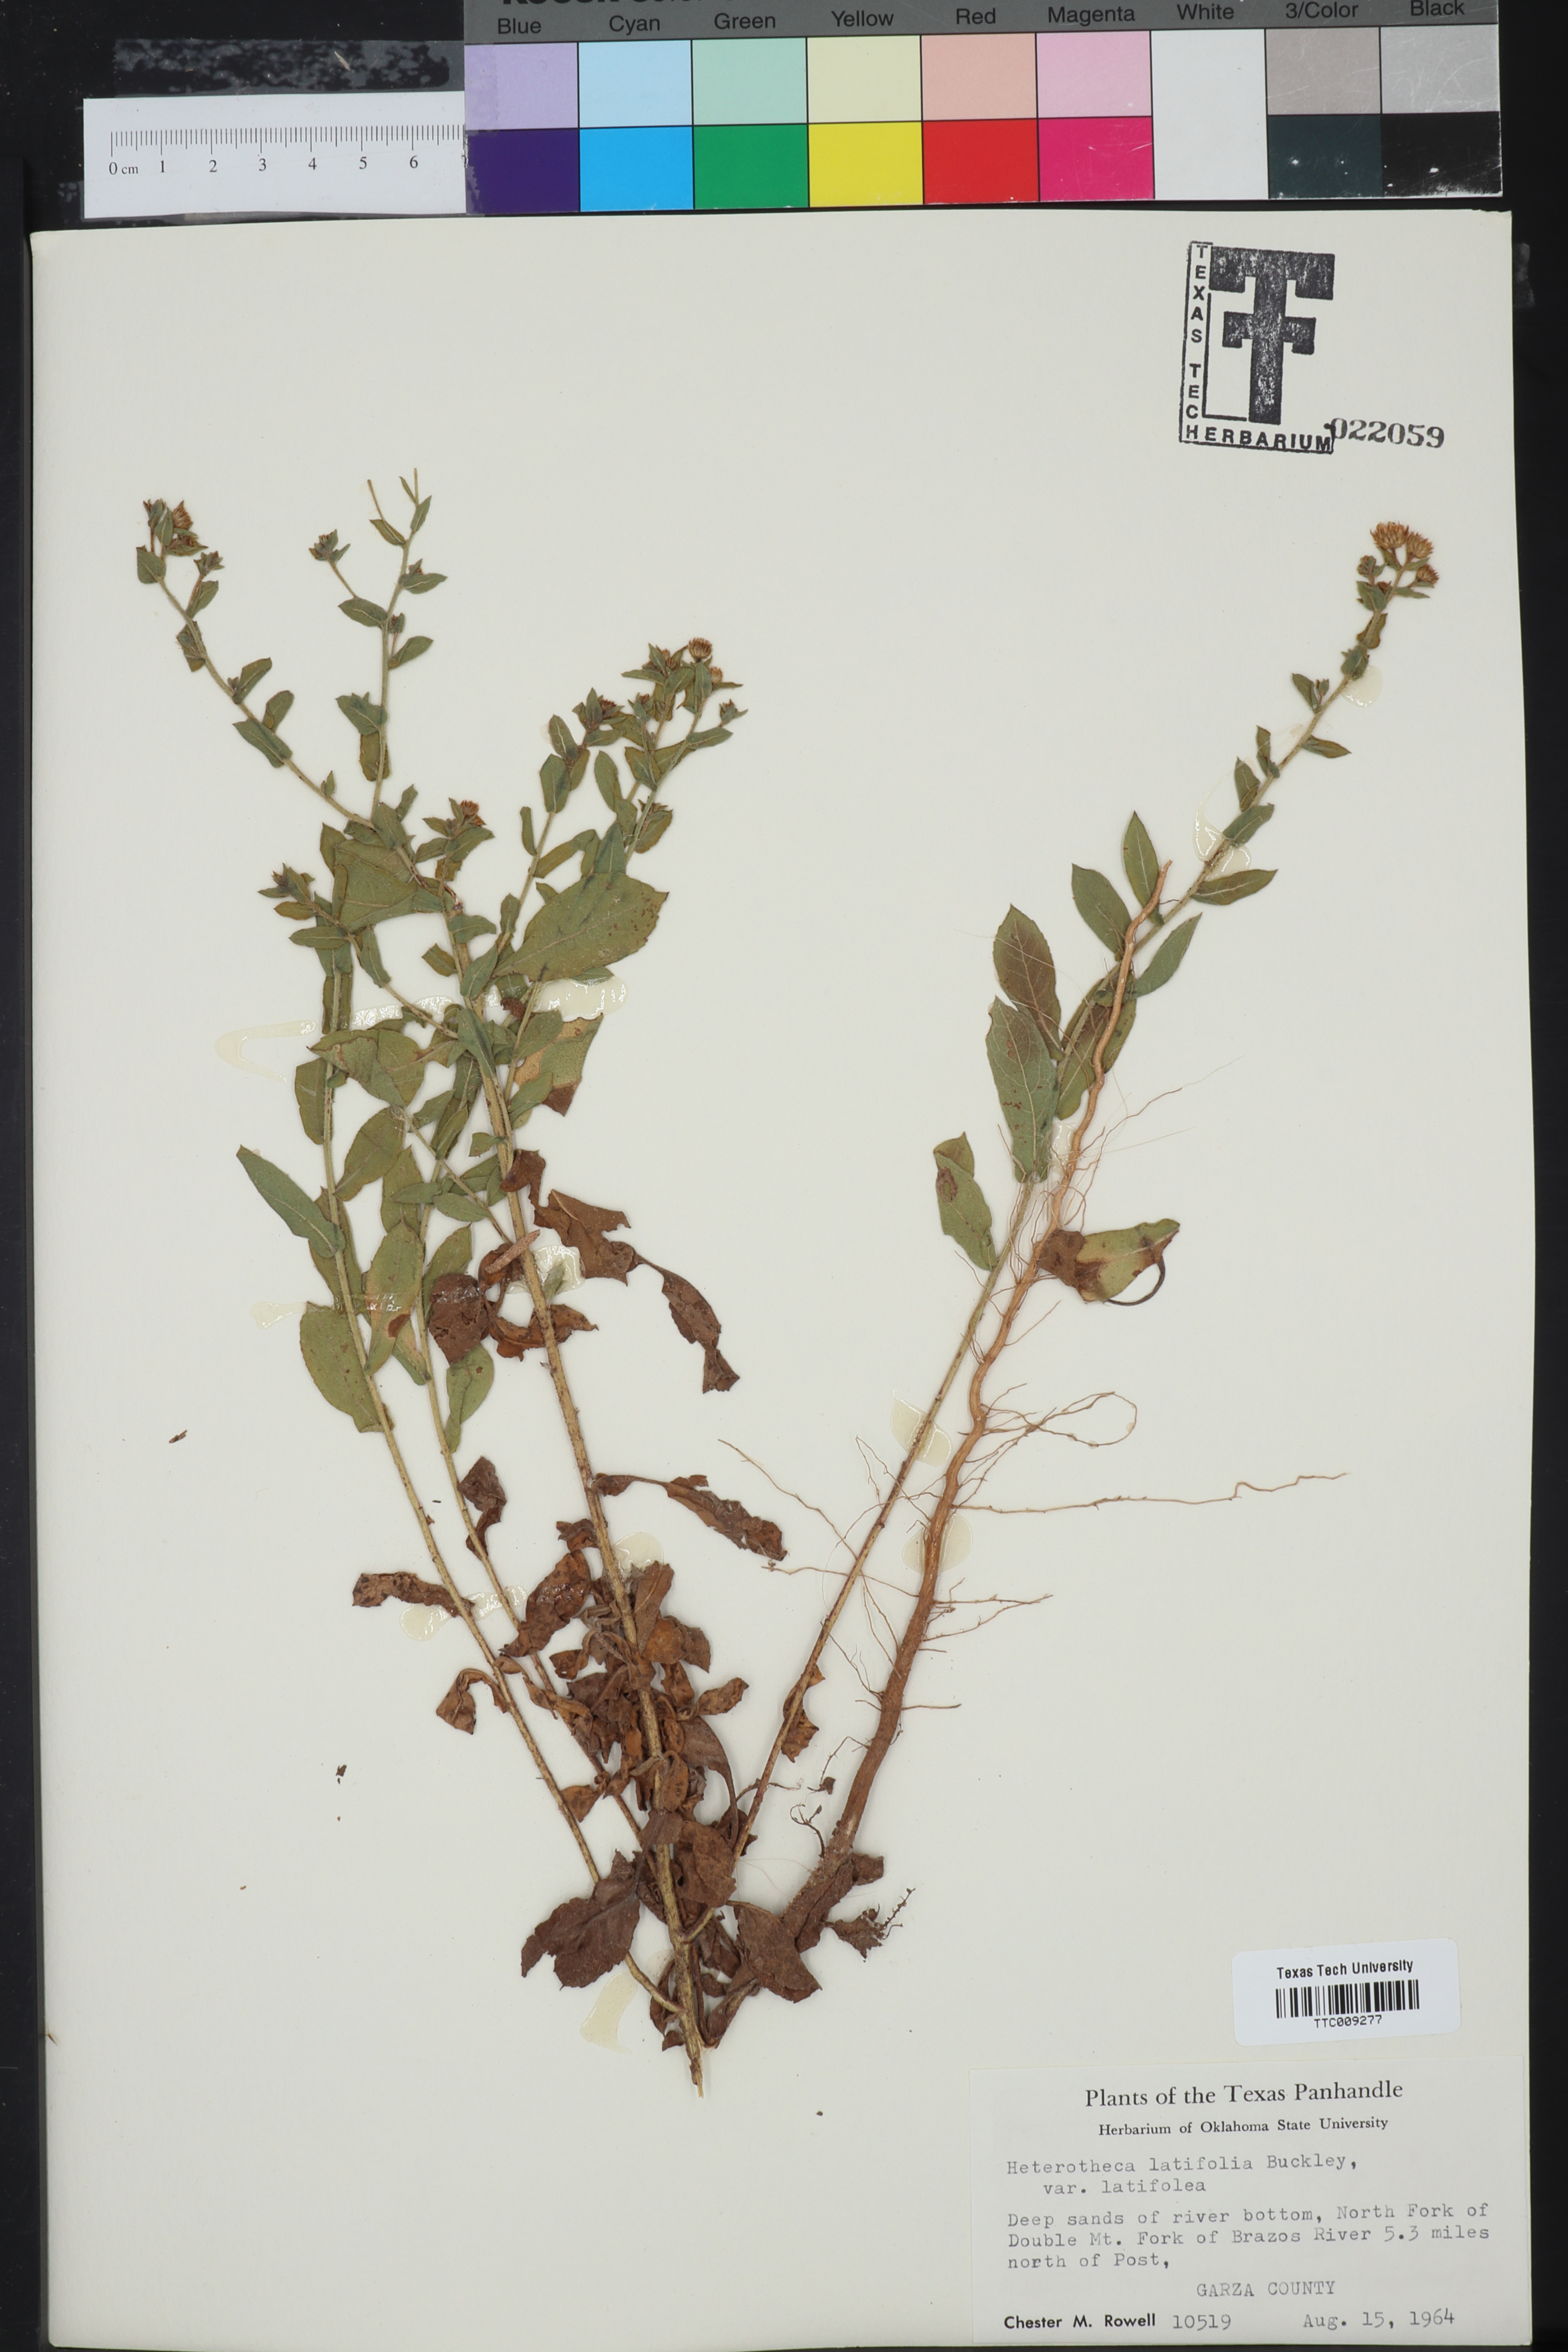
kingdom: Plantae
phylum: Tracheophyta
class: Magnoliopsida
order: Asterales
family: Asteraceae
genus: Heterotheca
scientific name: Heterotheca subaxillaris
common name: Camphorweed
